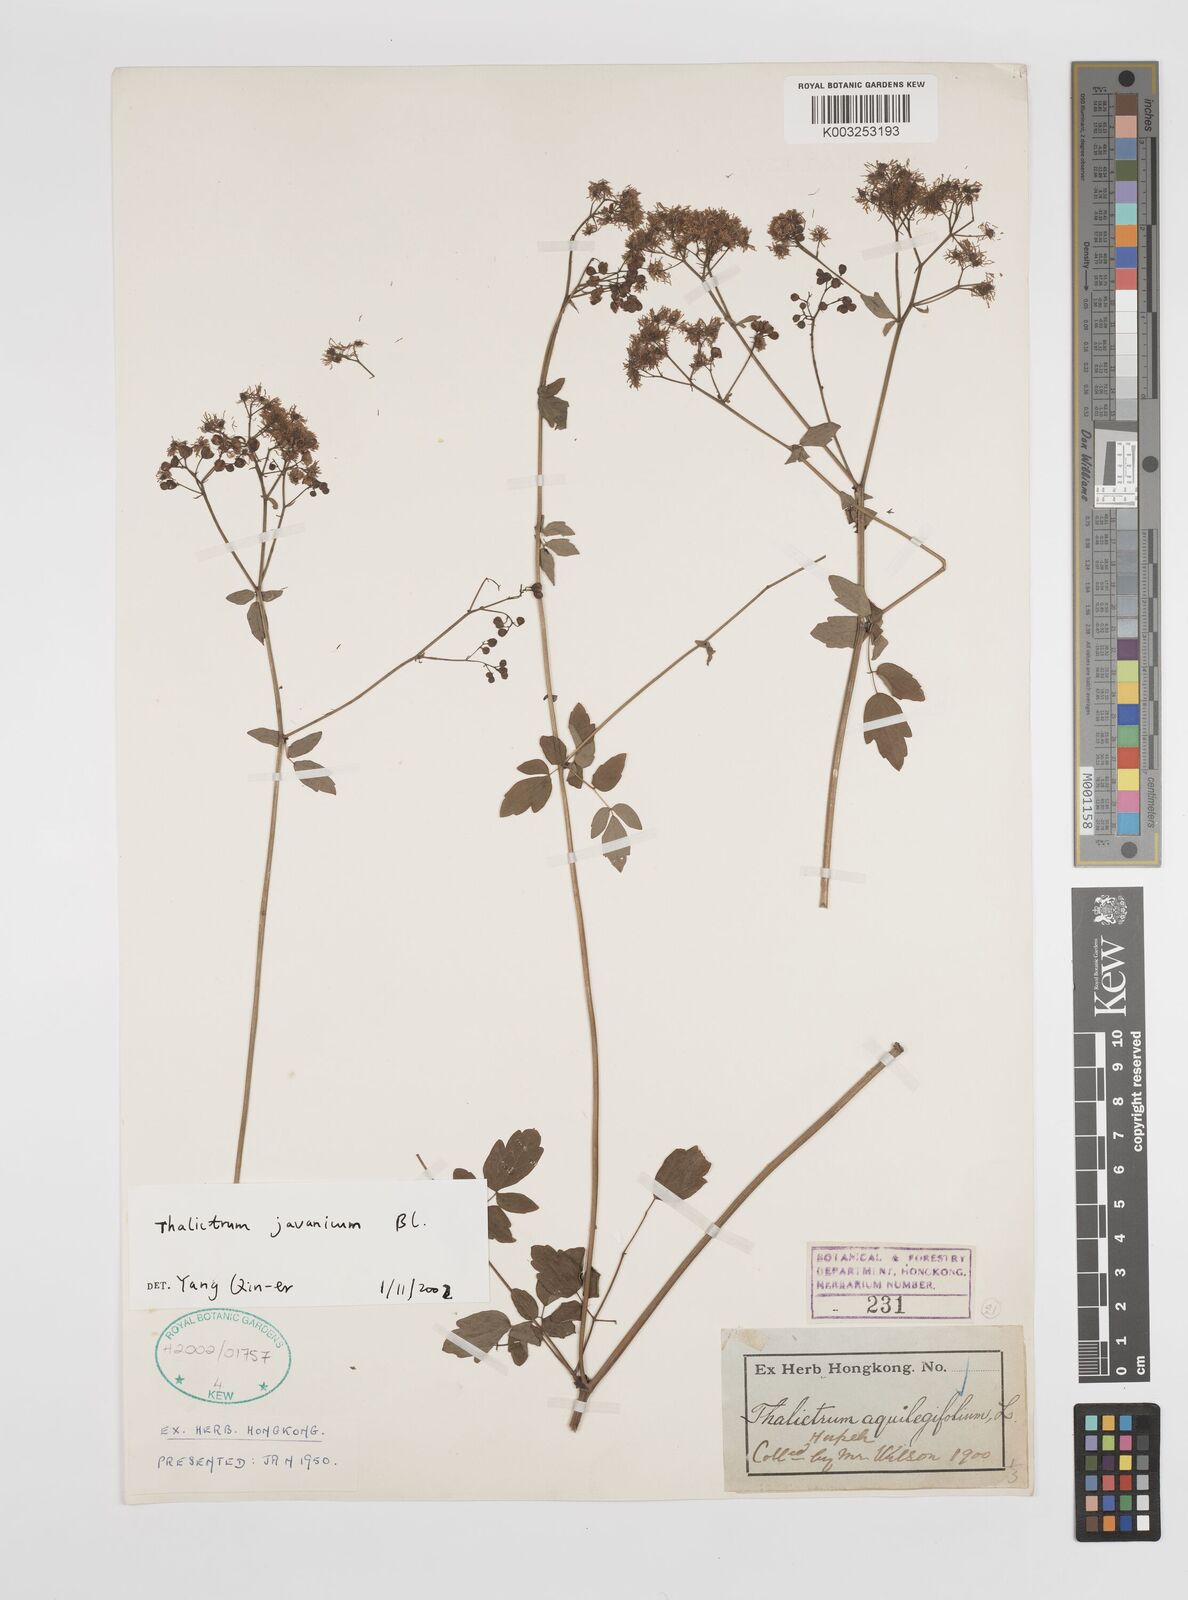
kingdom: Plantae
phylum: Tracheophyta
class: Magnoliopsida
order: Ranunculales
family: Ranunculaceae
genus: Thalictrum
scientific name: Thalictrum javanicum
